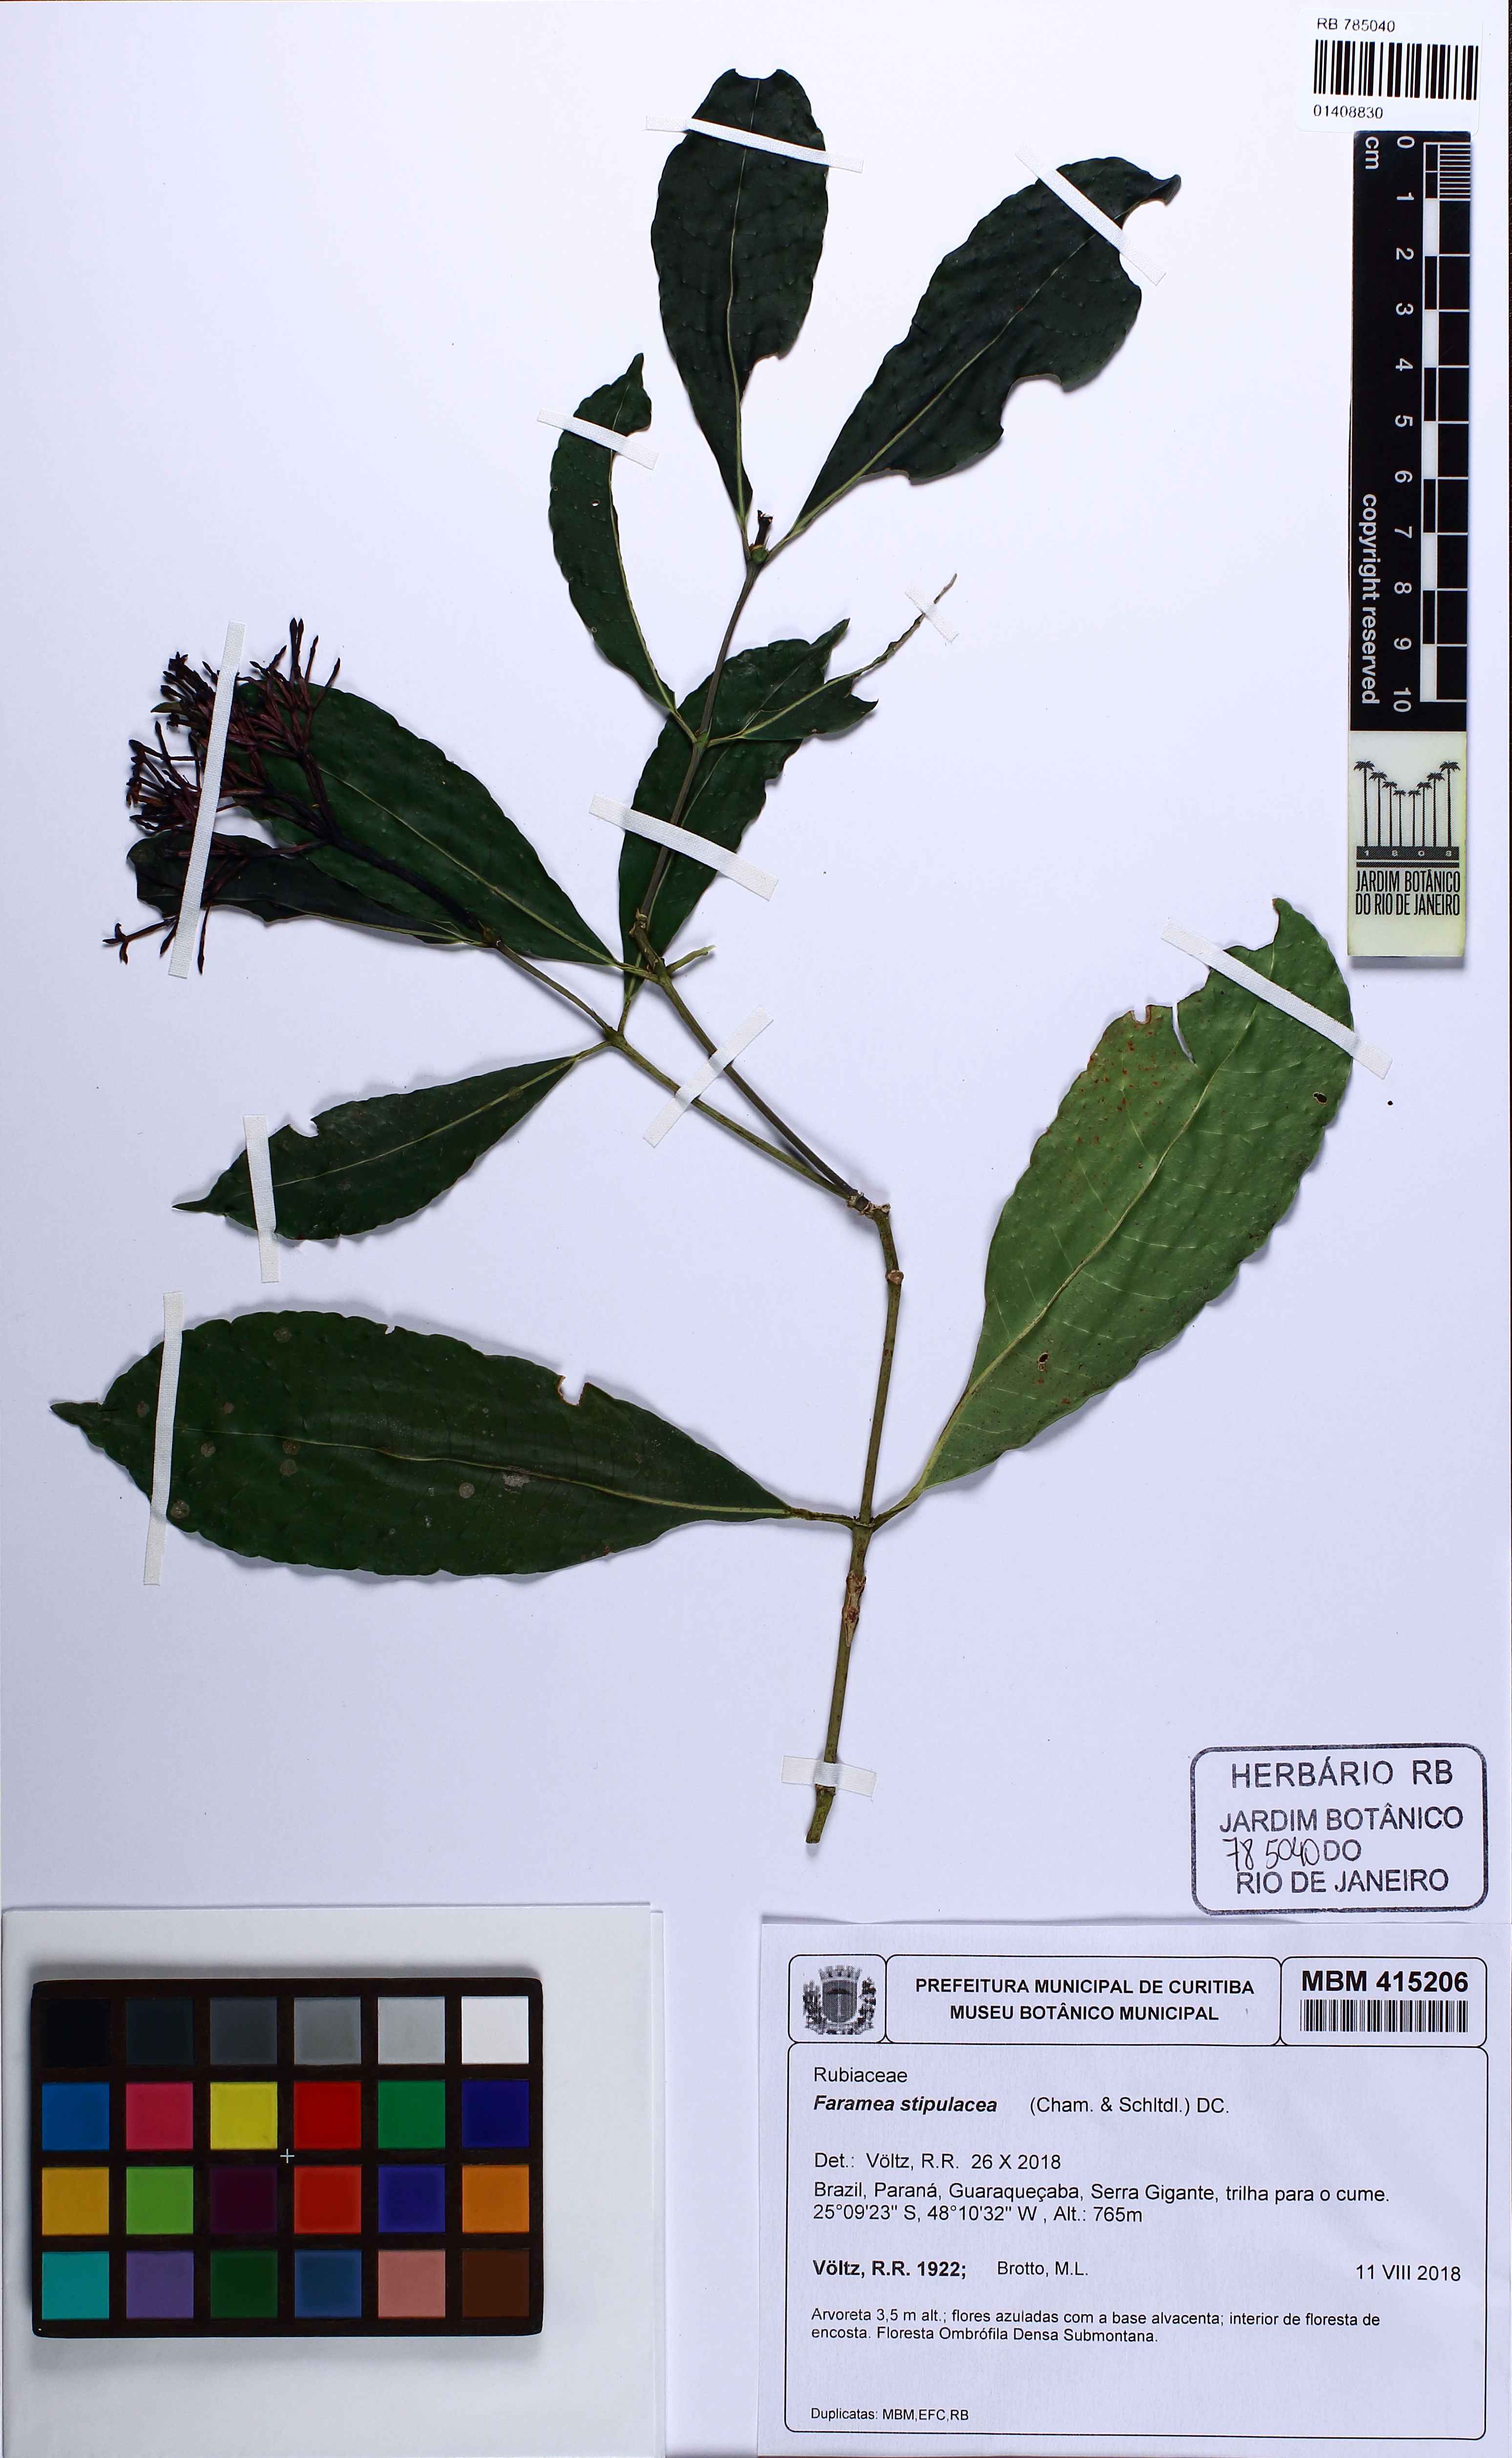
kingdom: Plantae
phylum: Tracheophyta
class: Magnoliopsida
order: Gentianales
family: Rubiaceae
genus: Faramea
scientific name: Faramea stipulacea
